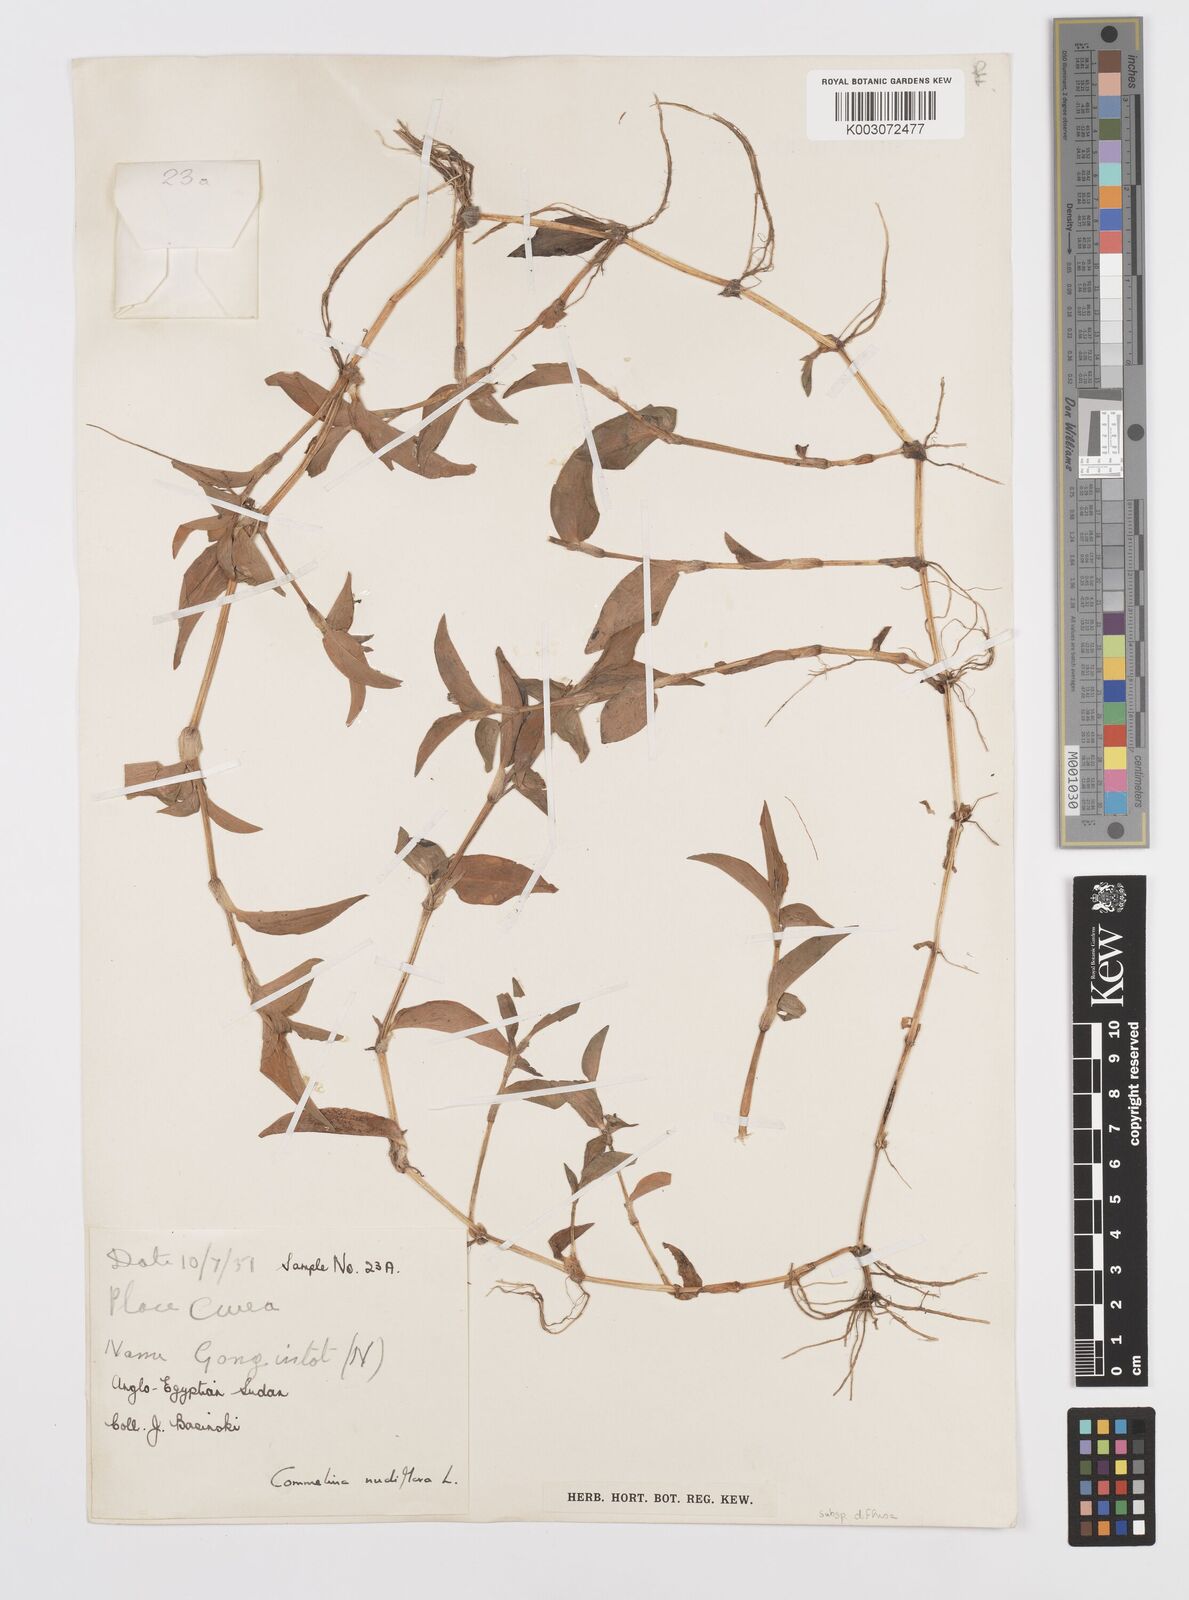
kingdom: Plantae
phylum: Tracheophyta
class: Liliopsida
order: Commelinales
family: Commelinaceae
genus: Commelina
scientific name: Commelina diffusa
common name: Climbing dayflower
